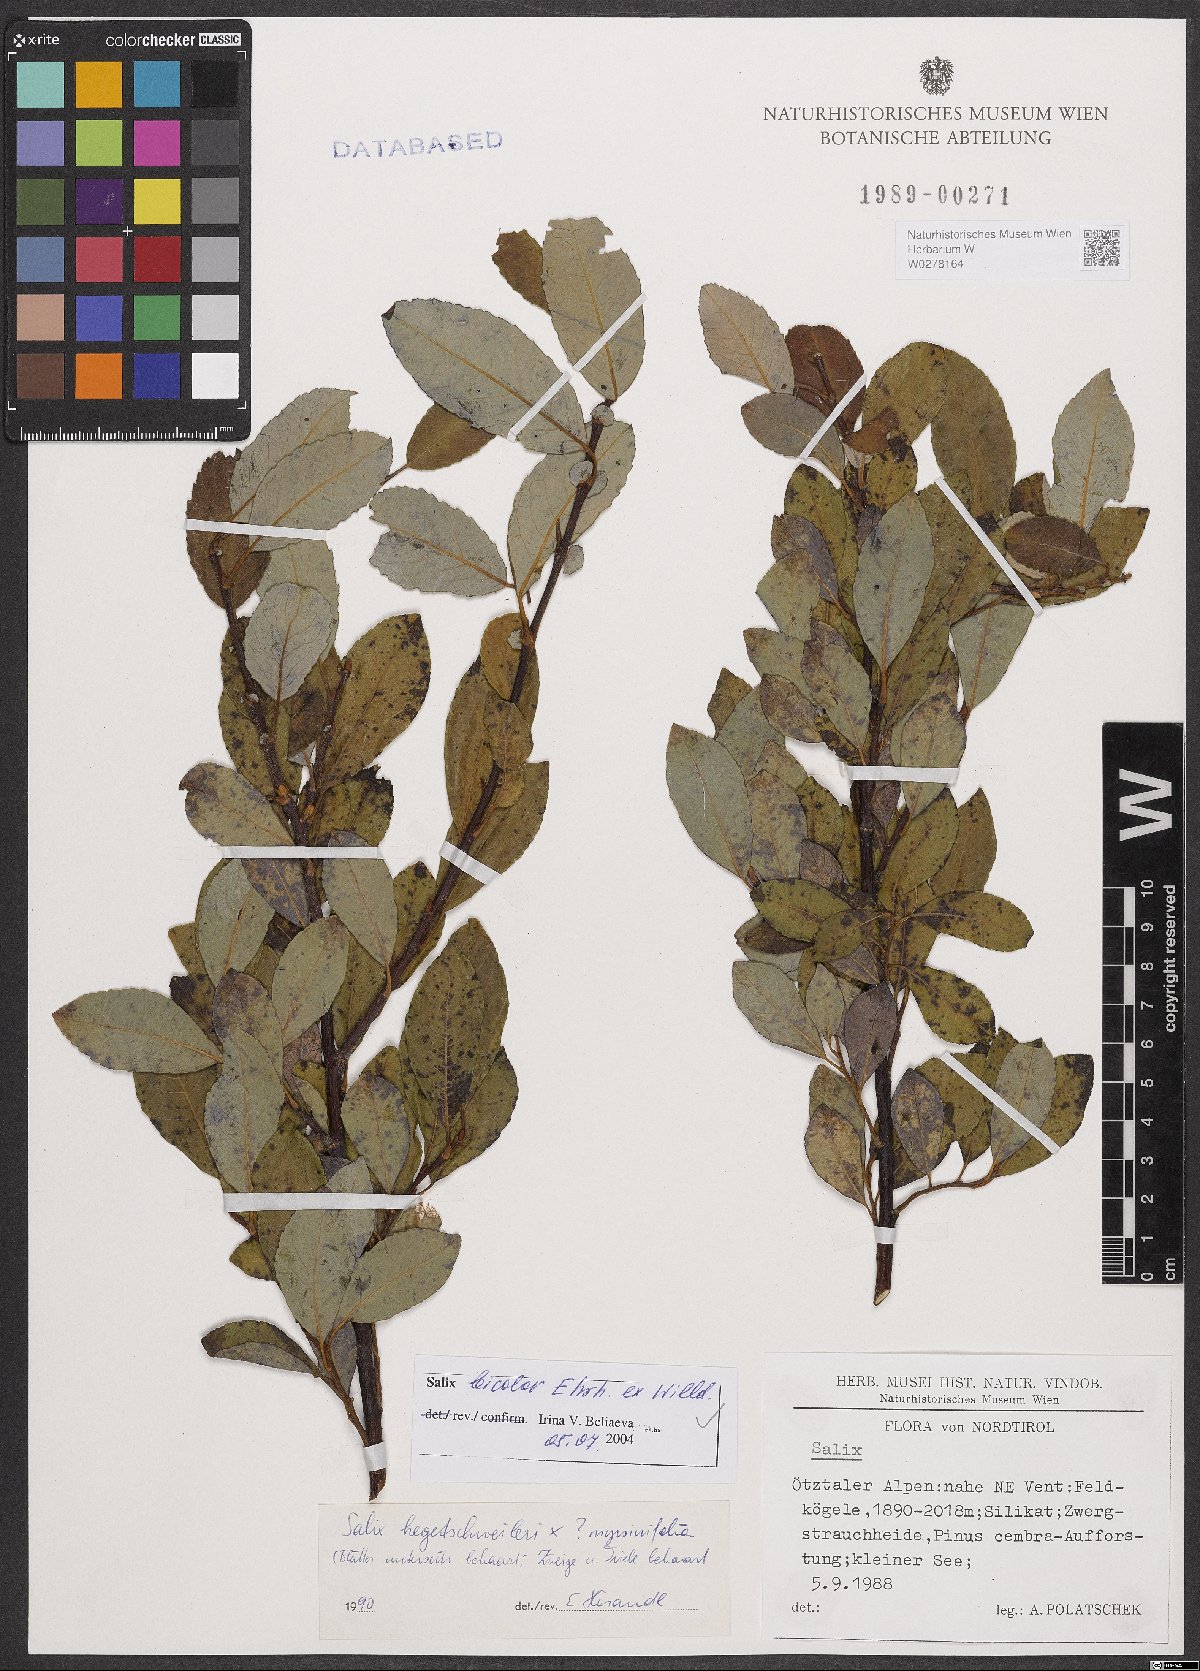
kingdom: Plantae
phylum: Tracheophyta
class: Magnoliopsida
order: Malpighiales
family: Salicaceae
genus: Salix
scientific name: Salix bicolor
